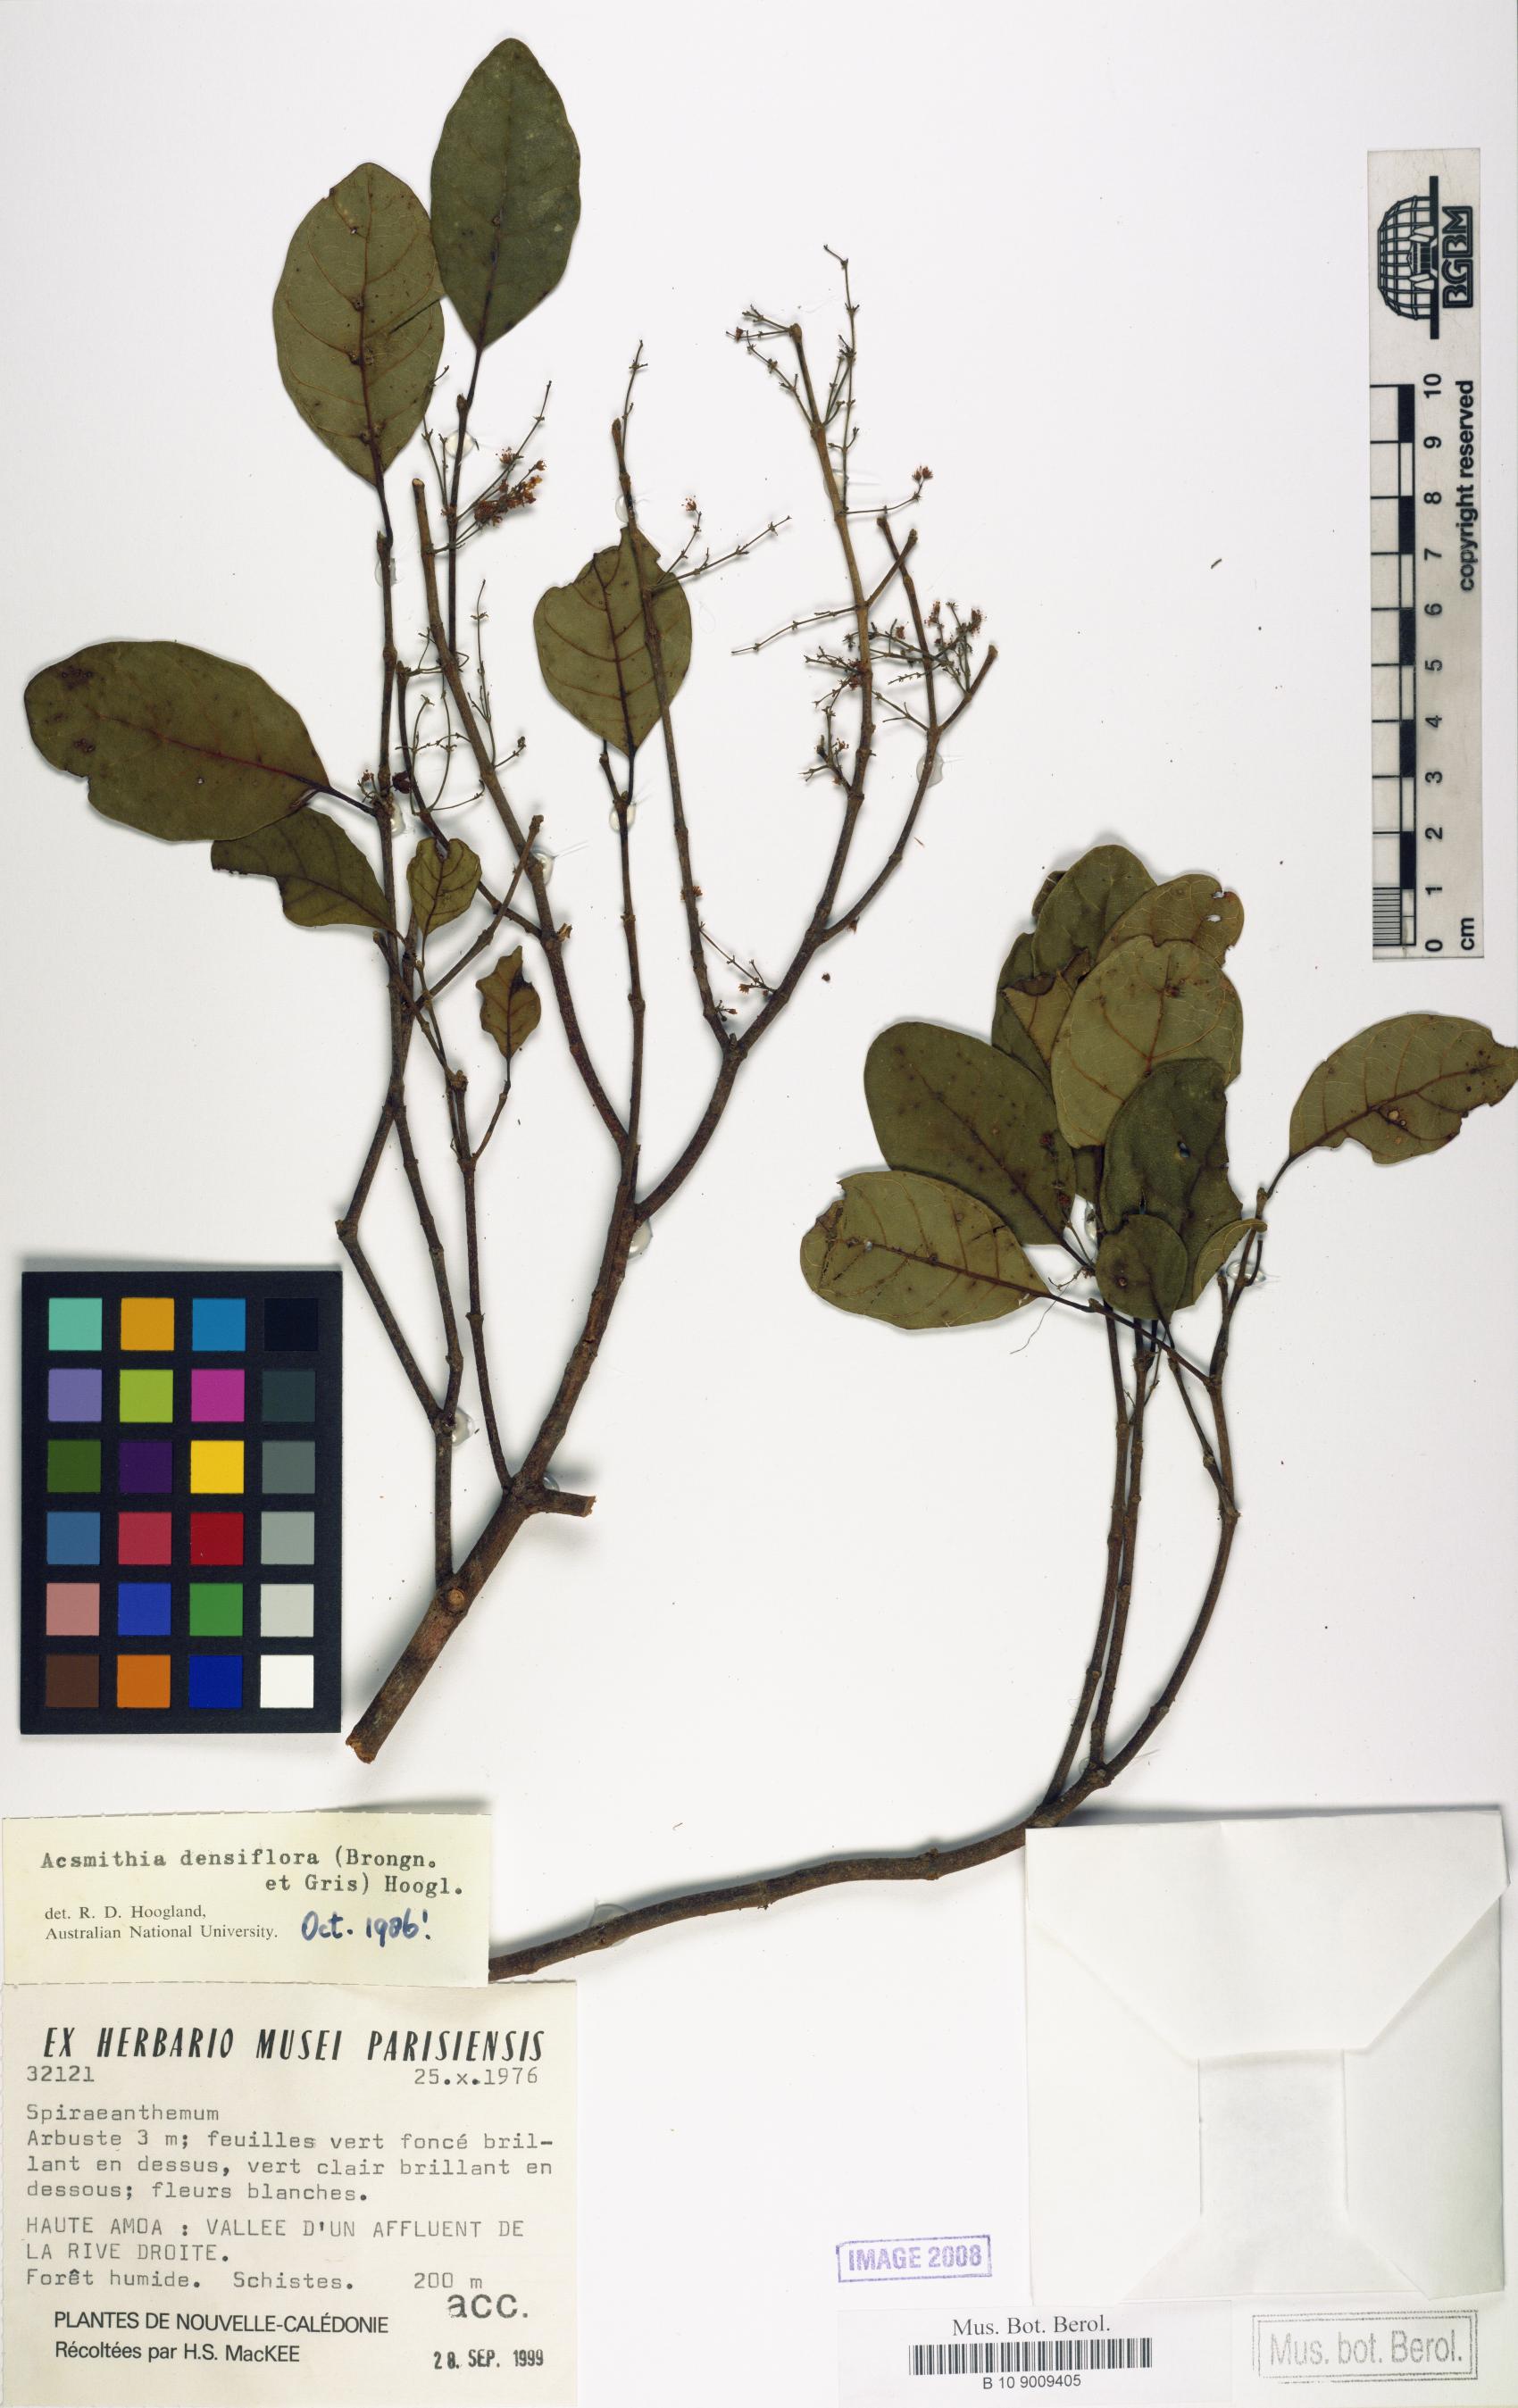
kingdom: Plantae
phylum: Tracheophyta
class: Magnoliopsida
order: Oxalidales
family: Cunoniaceae
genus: Spiraeanthemum
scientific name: Spiraeanthemum densiflorum
